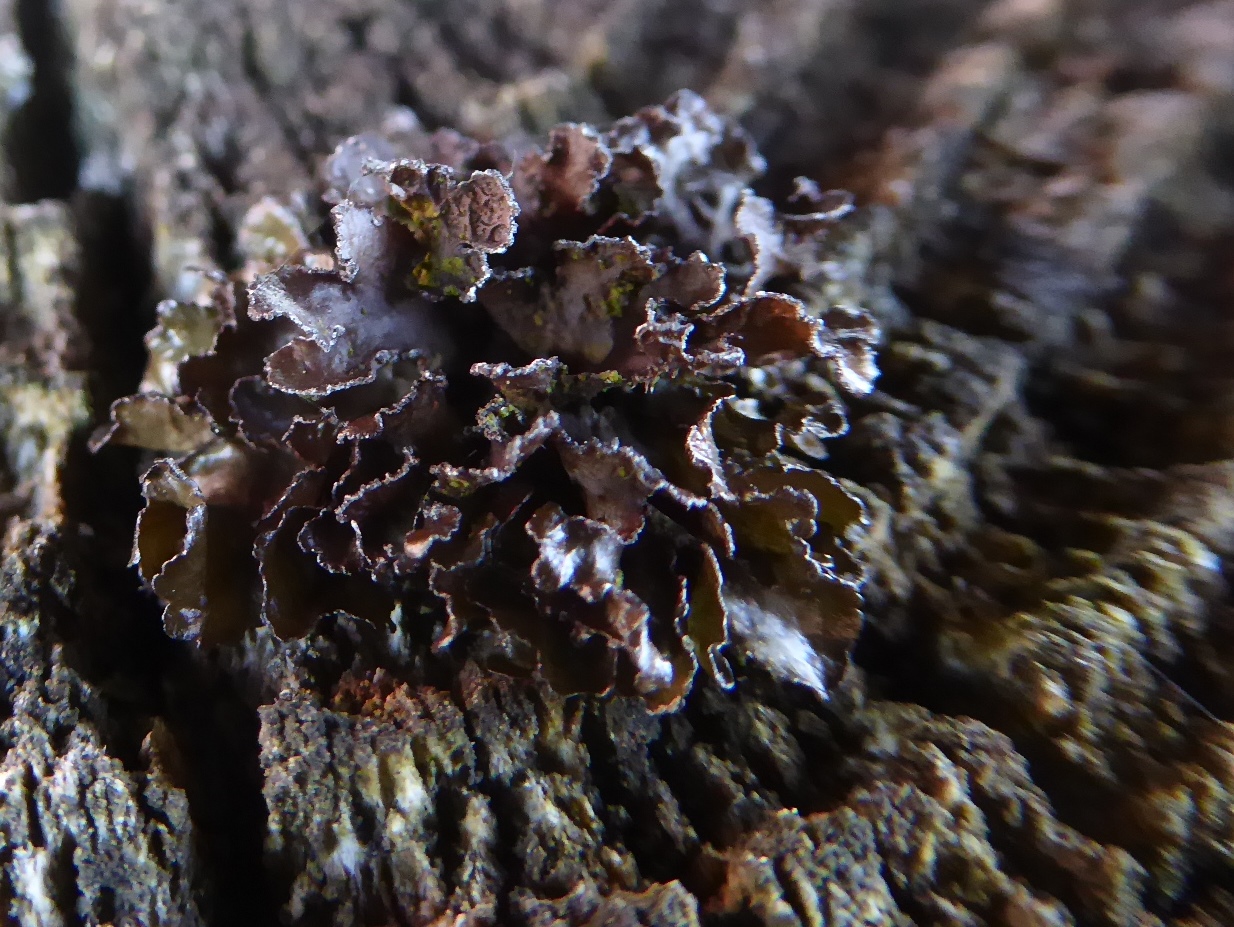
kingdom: Fungi
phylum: Ascomycota
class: Lecanoromycetes
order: Lecanorales
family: Parmeliaceae
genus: Cetraria
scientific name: Cetraria sepincola
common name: tue-kruslav
